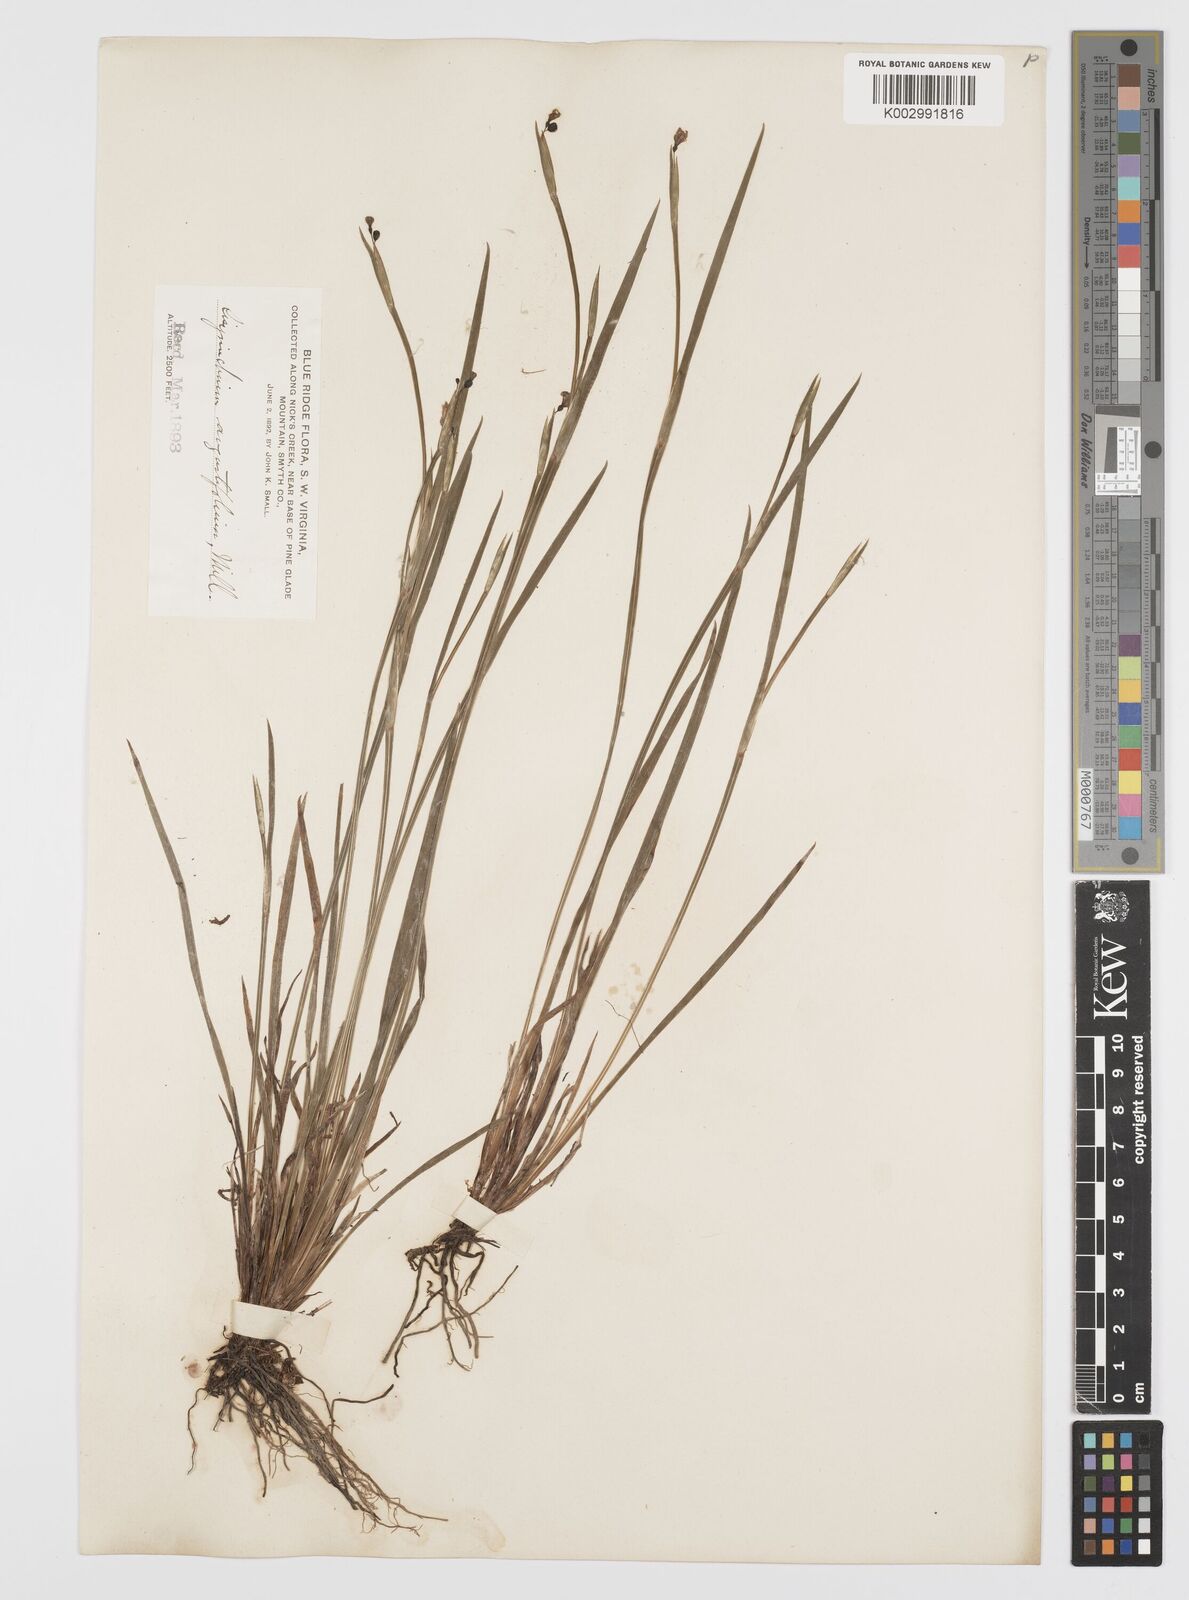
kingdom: Plantae
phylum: Tracheophyta
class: Liliopsida
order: Asparagales
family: Iridaceae
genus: Sisyrinchium
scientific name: Sisyrinchium bermudiana
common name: Blue-eyed-grass
